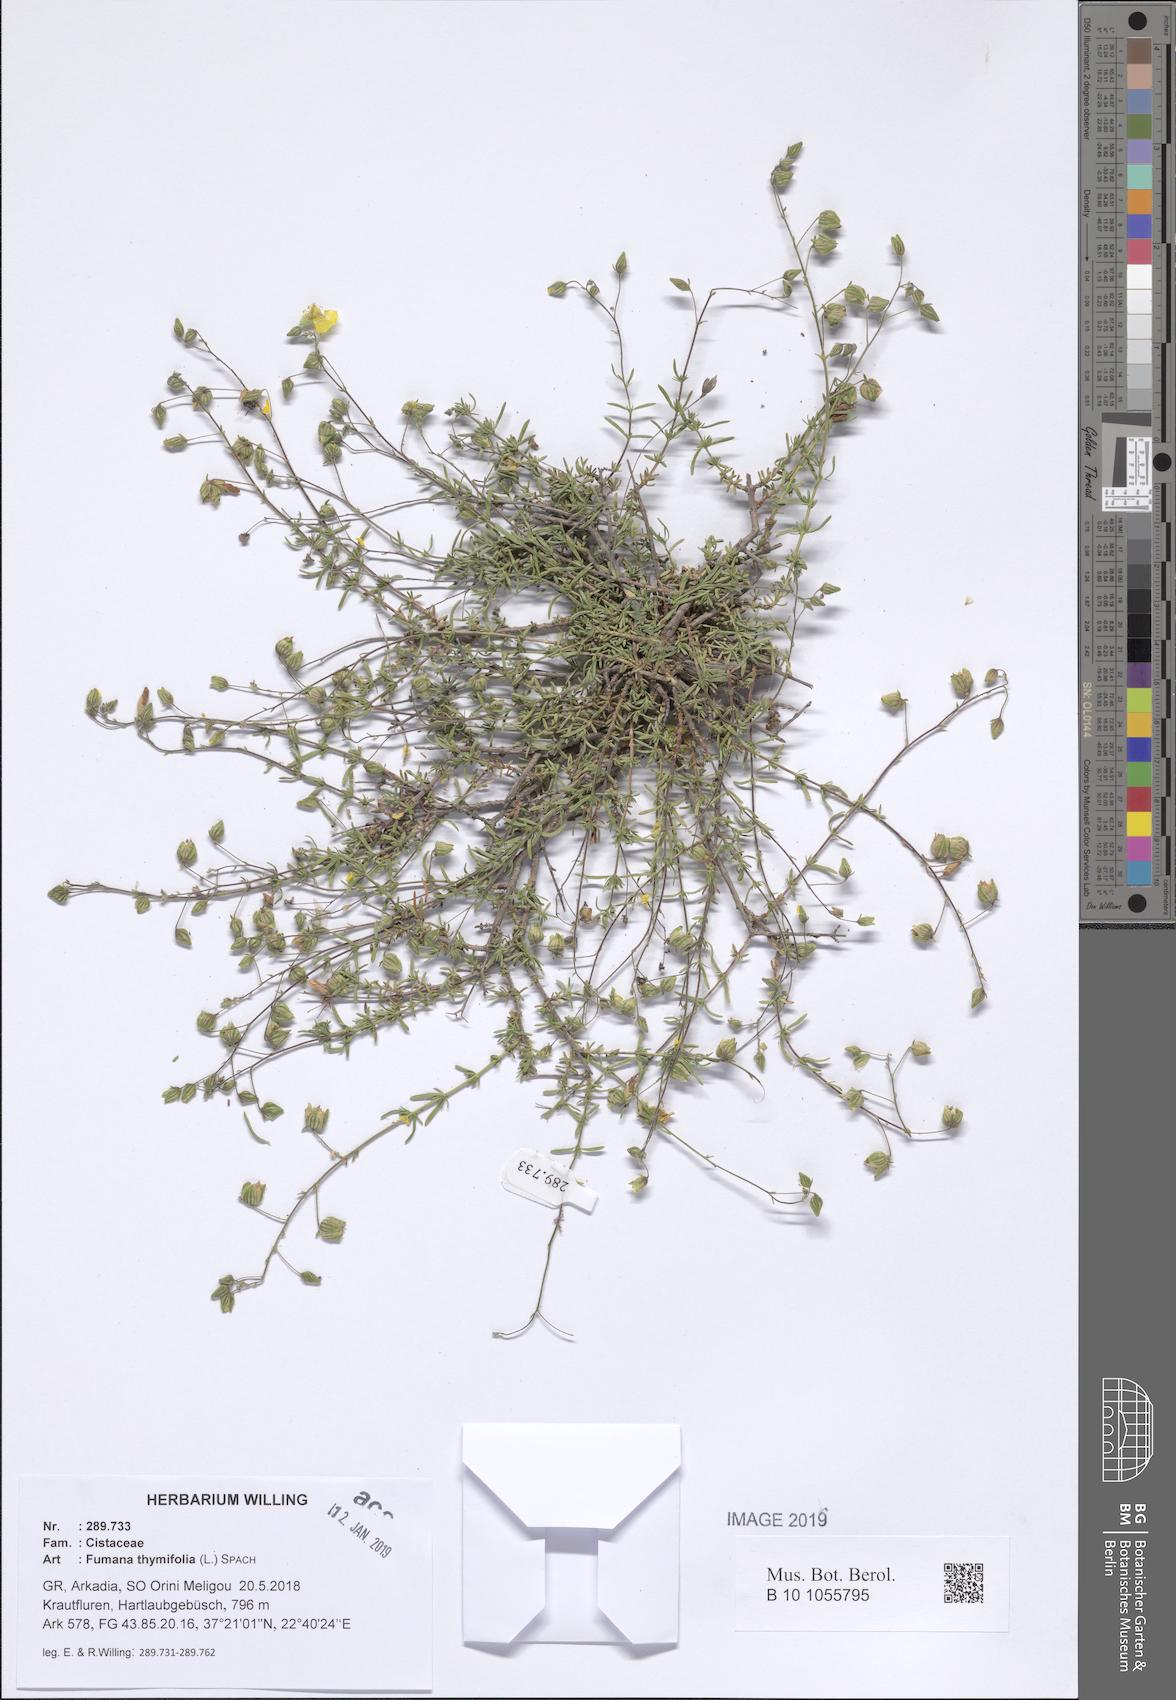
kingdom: Plantae
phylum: Tracheophyta
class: Magnoliopsida
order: Malvales
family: Cistaceae
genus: Fumana
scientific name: Fumana thymifolia
